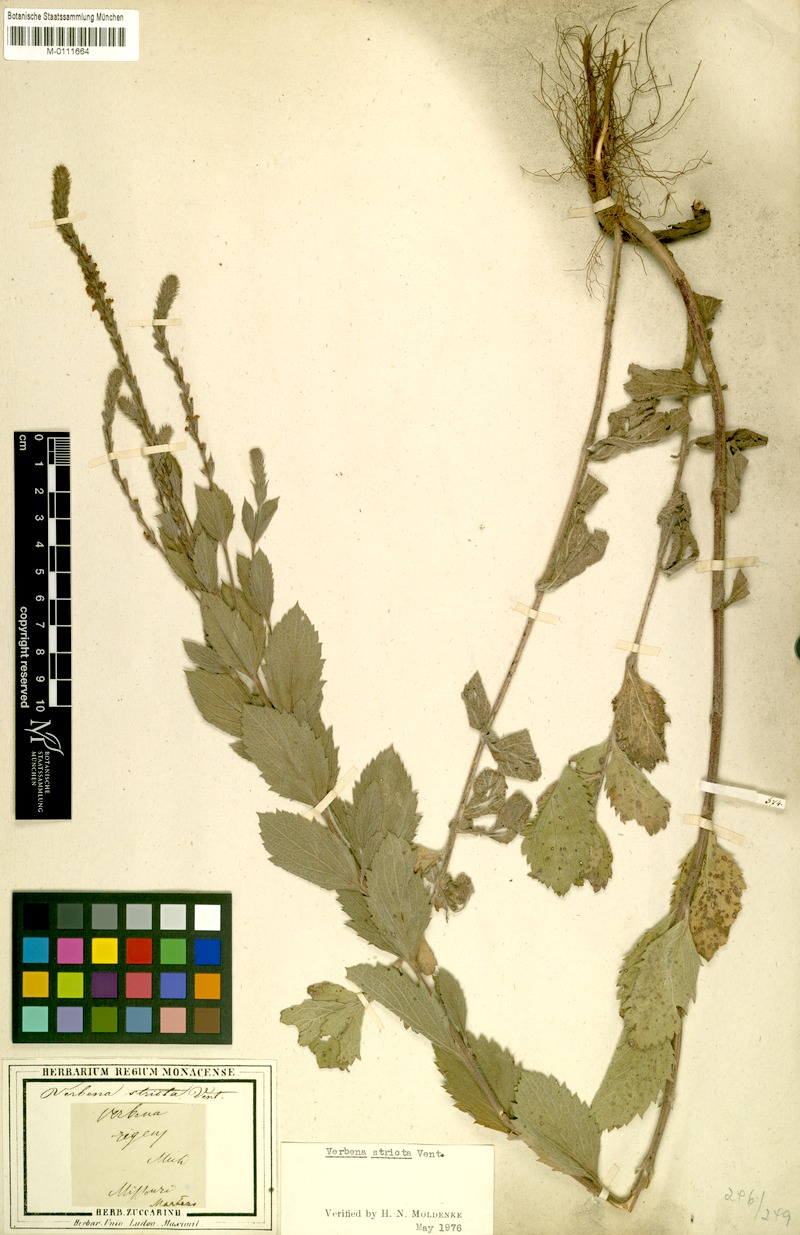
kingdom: Plantae
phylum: Tracheophyta
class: Magnoliopsida
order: Lamiales
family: Verbenaceae
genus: Verbena
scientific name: Verbena stricta
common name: Hoary vervain
